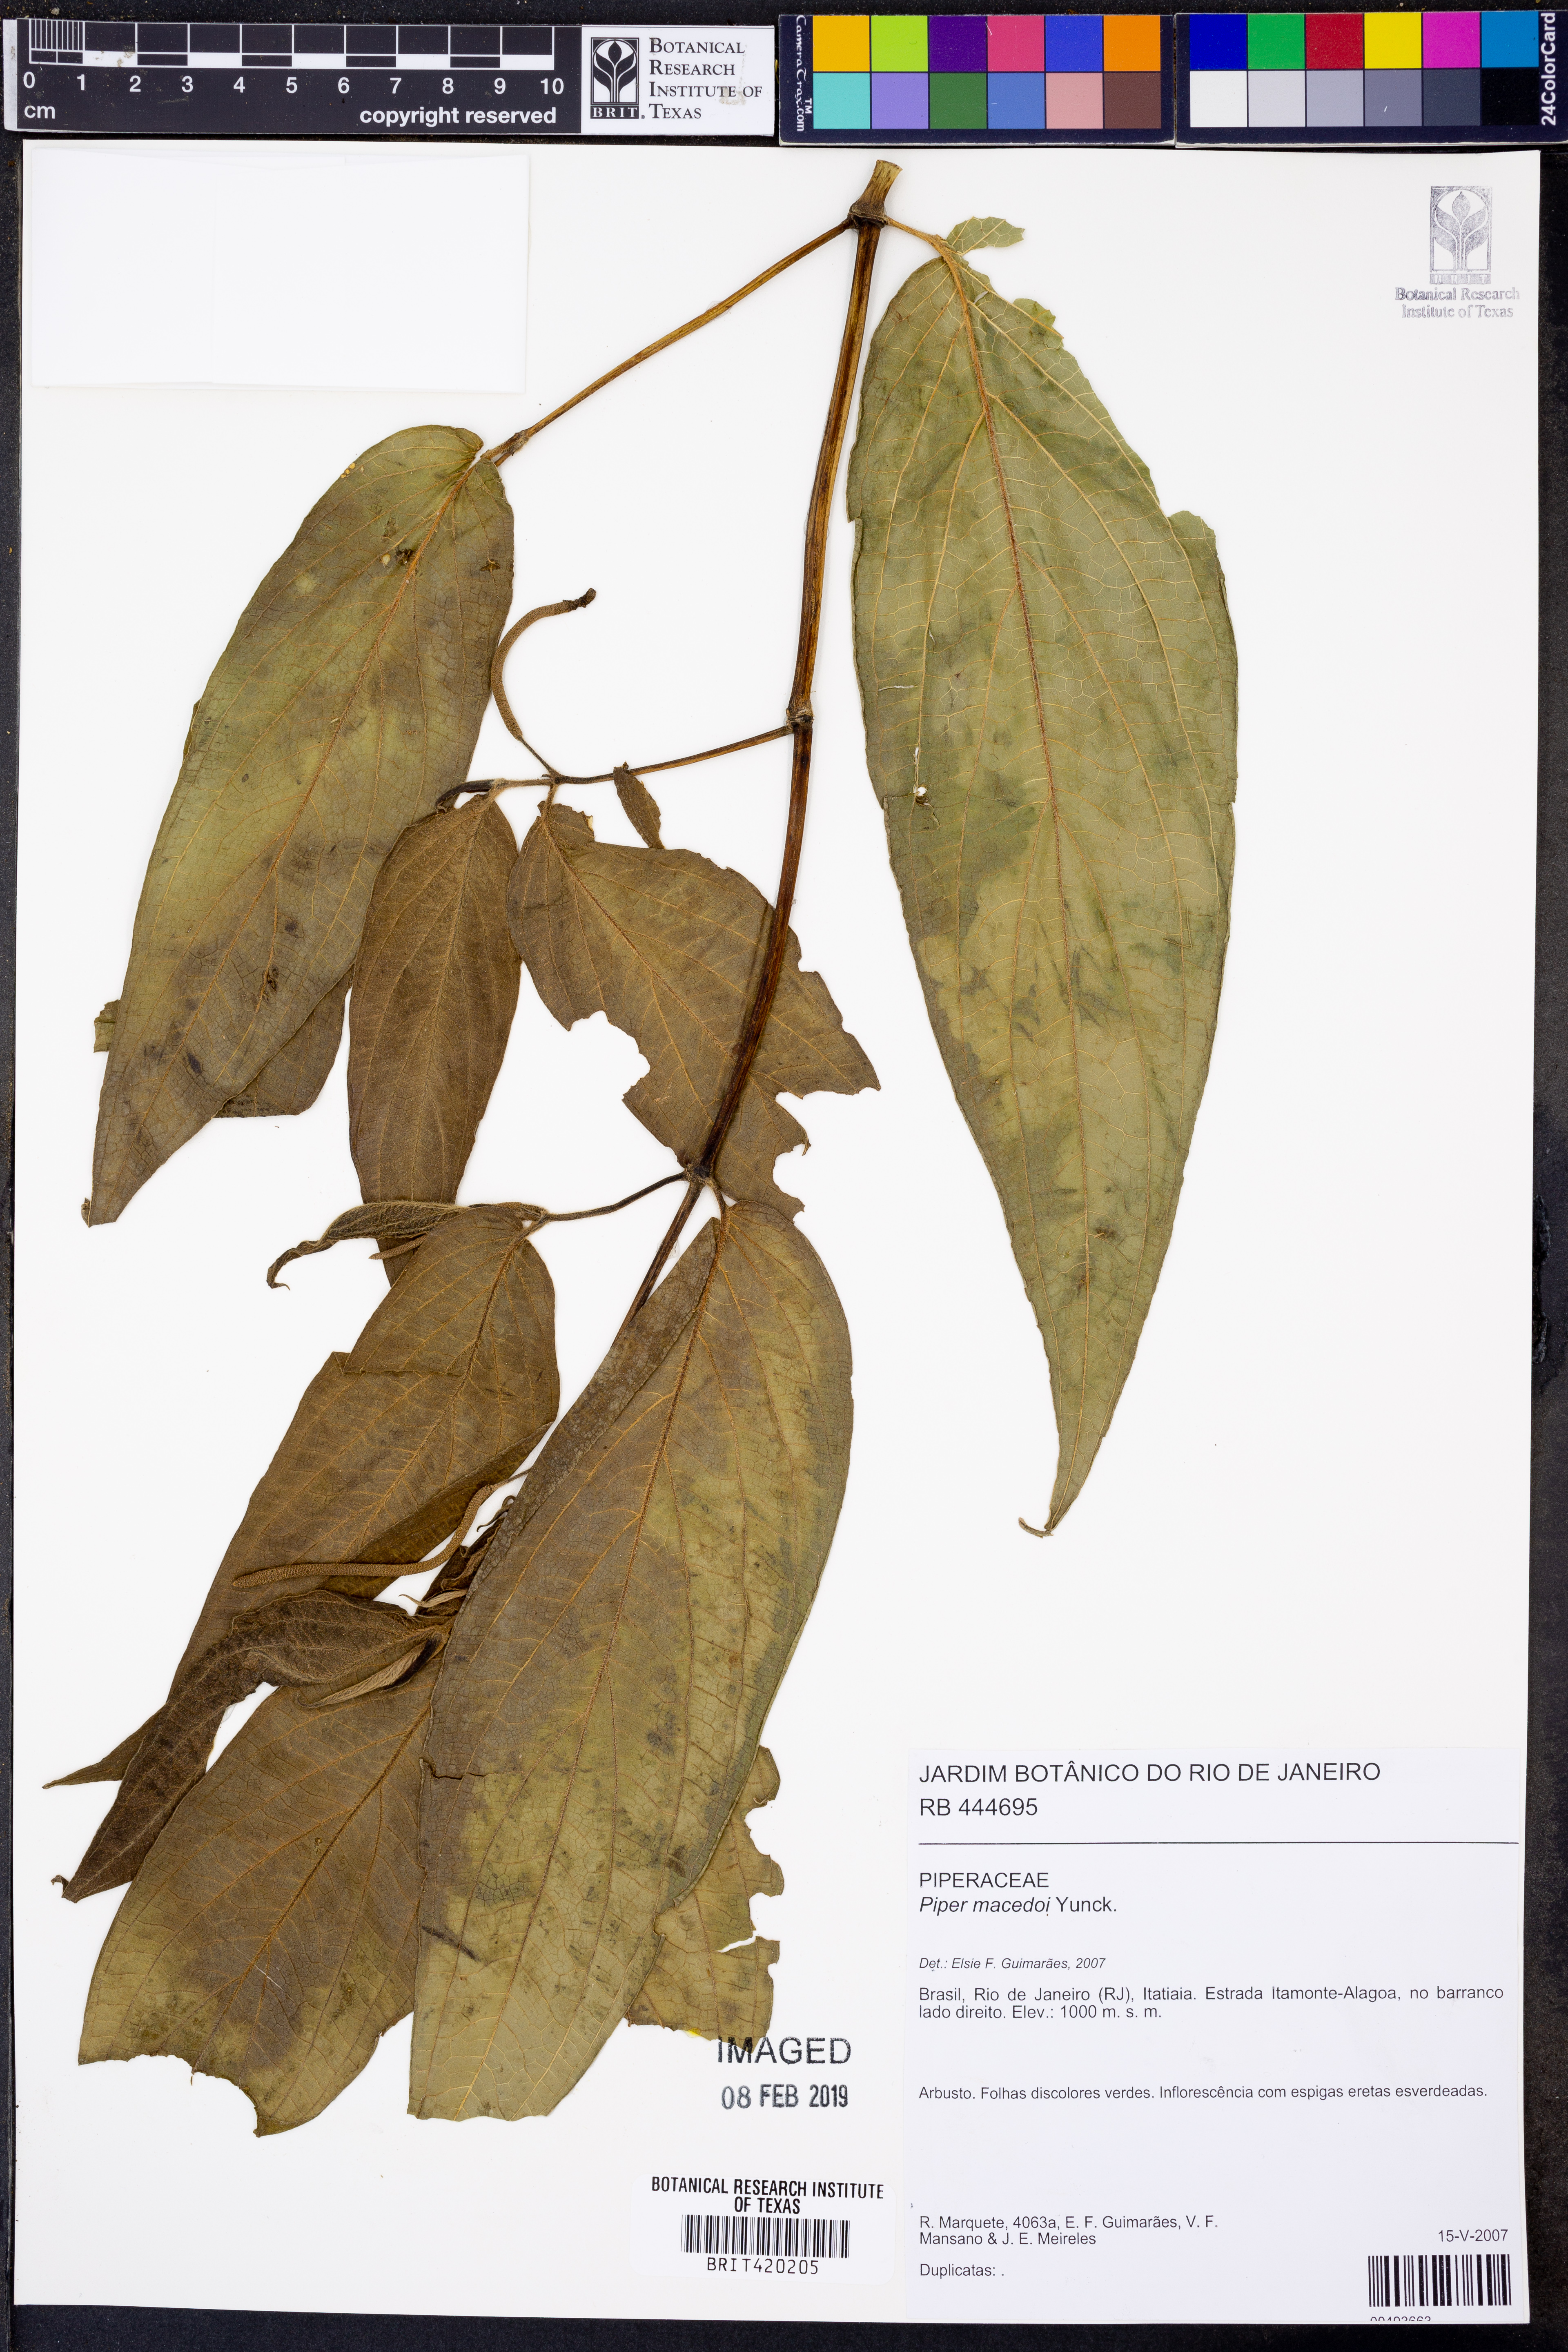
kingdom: Plantae
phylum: Tracheophyta
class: Magnoliopsida
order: Piperales
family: Piperaceae
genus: Piper
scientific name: Piper macedoi
